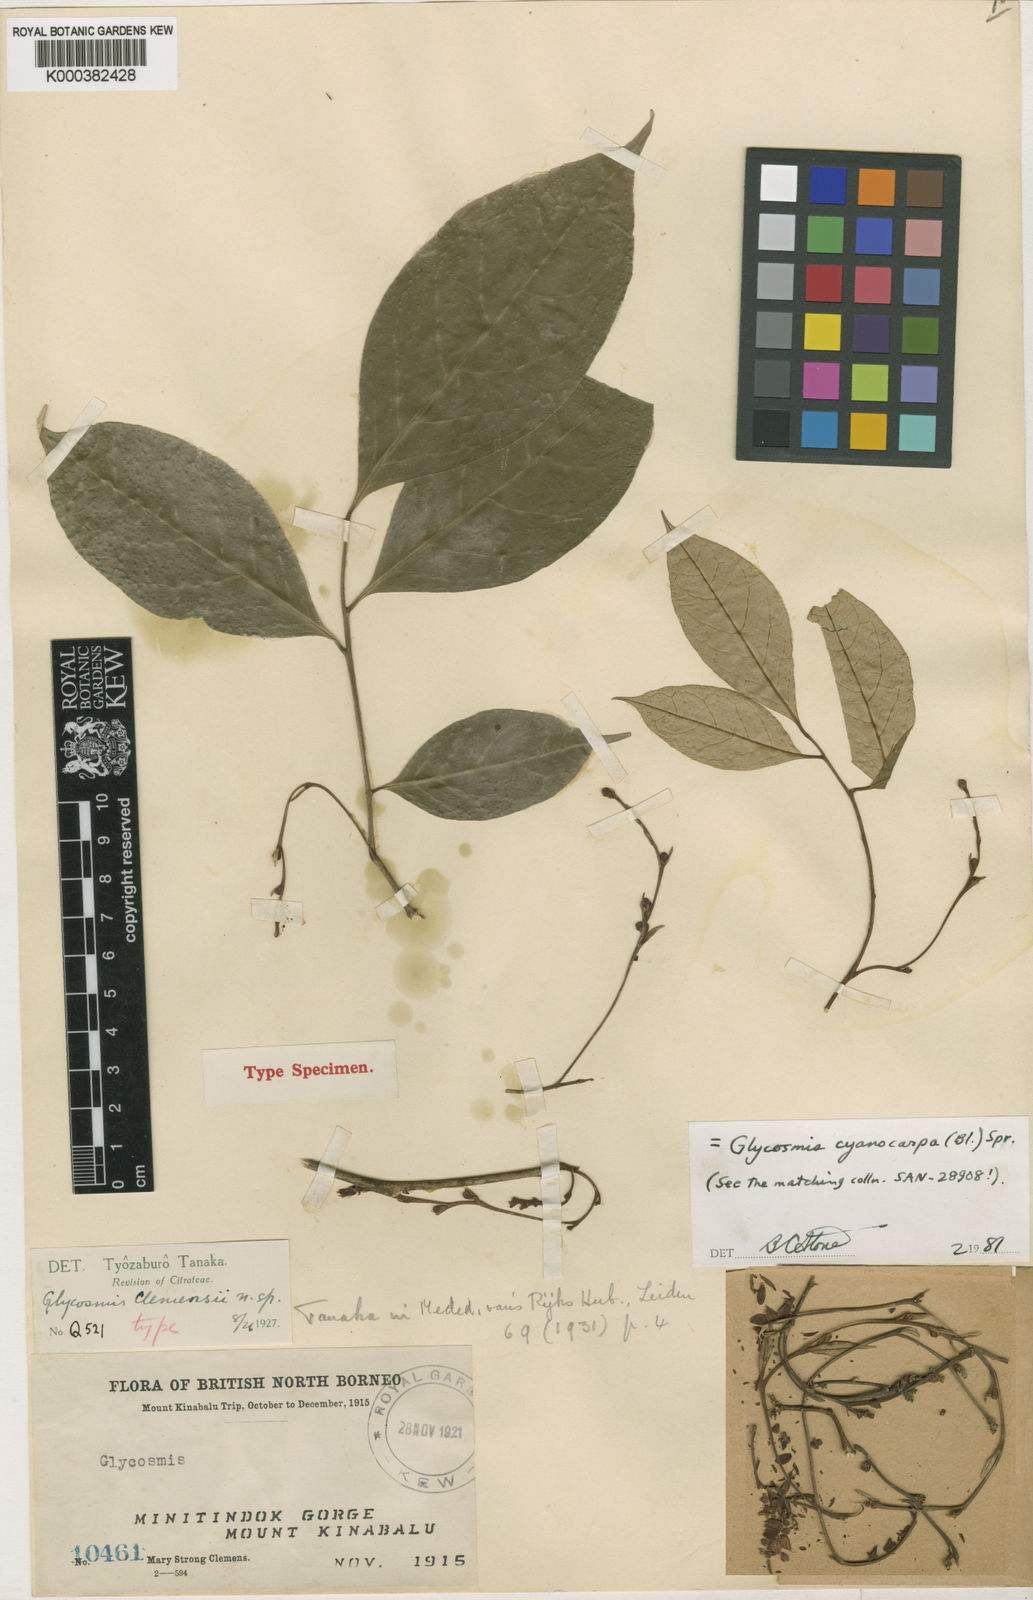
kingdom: Plantae
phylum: Tracheophyta
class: Magnoliopsida
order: Sapindales
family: Rutaceae
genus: Glycosmis
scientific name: Glycosmis cyanocarpa
